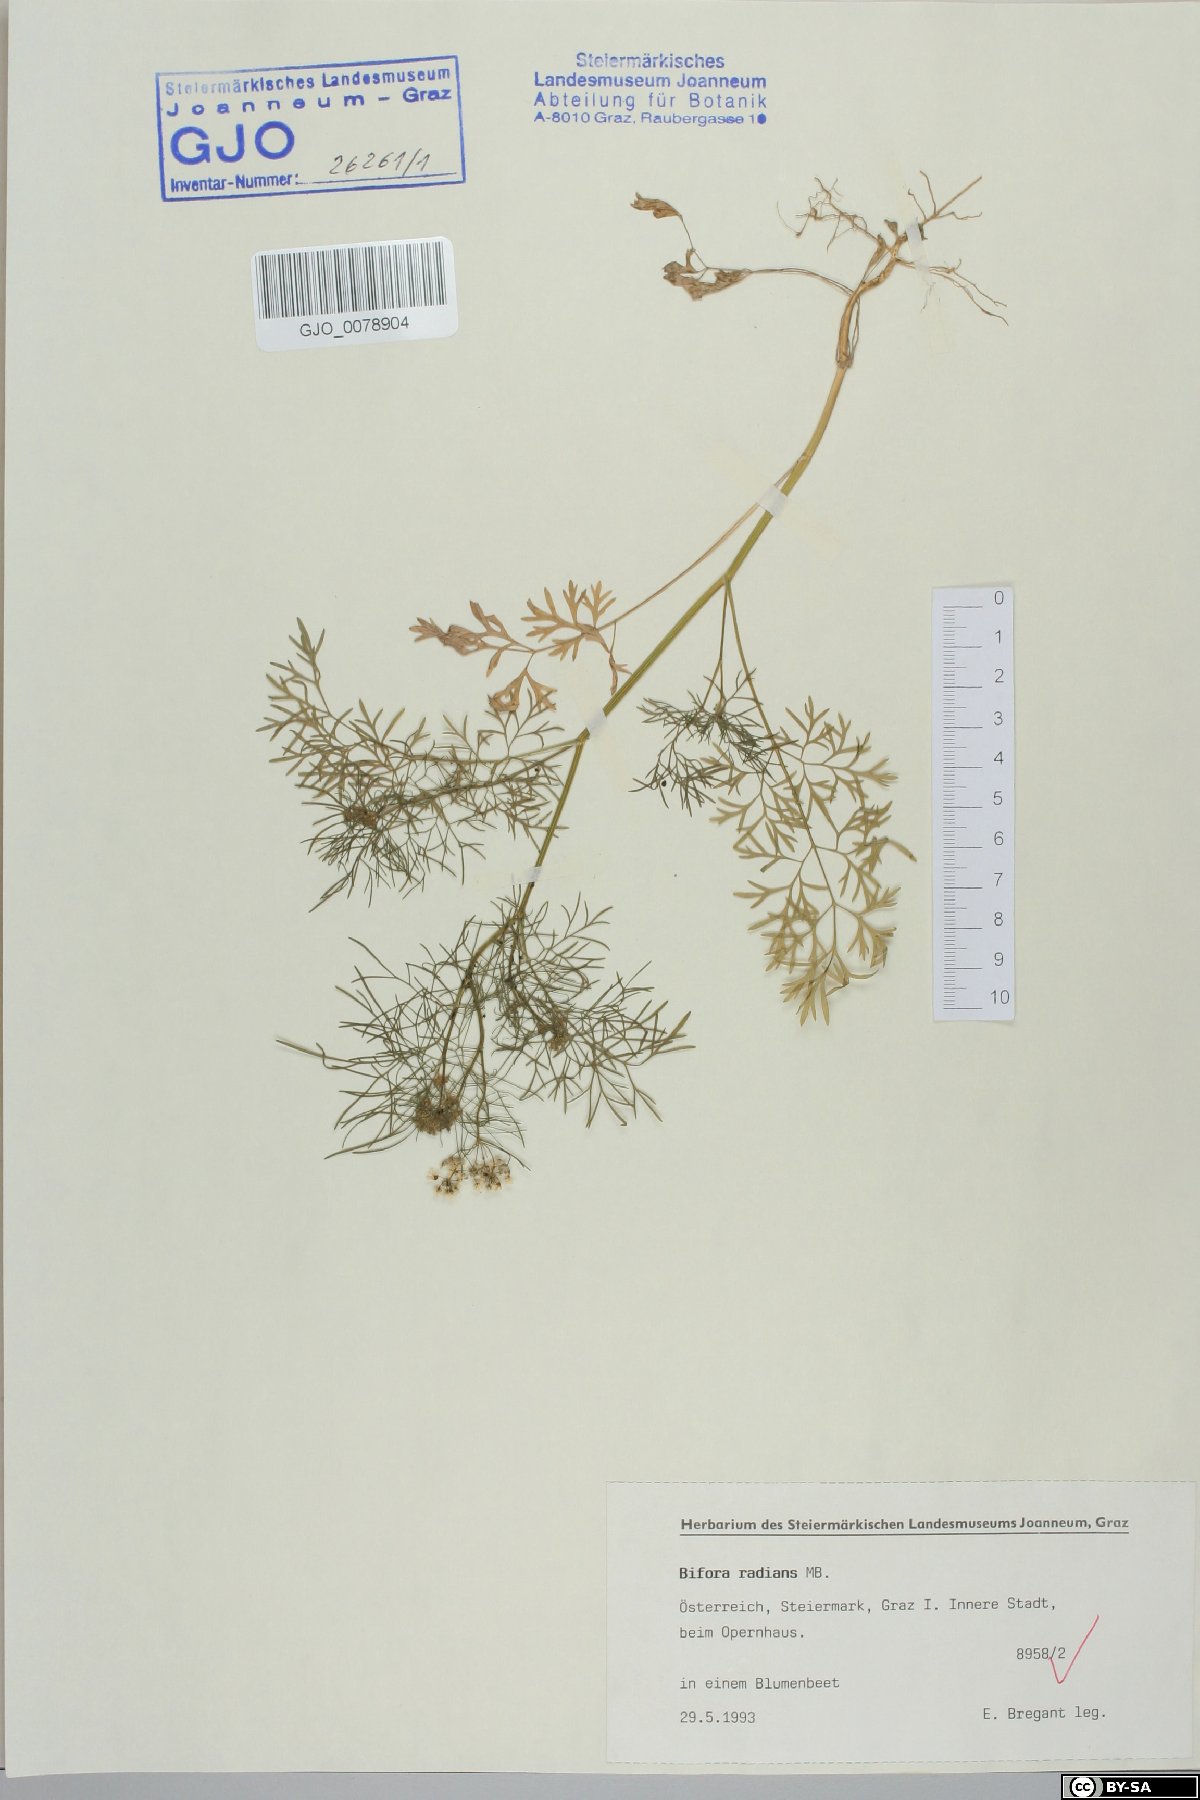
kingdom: Plantae
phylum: Tracheophyta
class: Magnoliopsida
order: Apiales
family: Apiaceae
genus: Bifora
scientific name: Bifora radians
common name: Wild bishop
